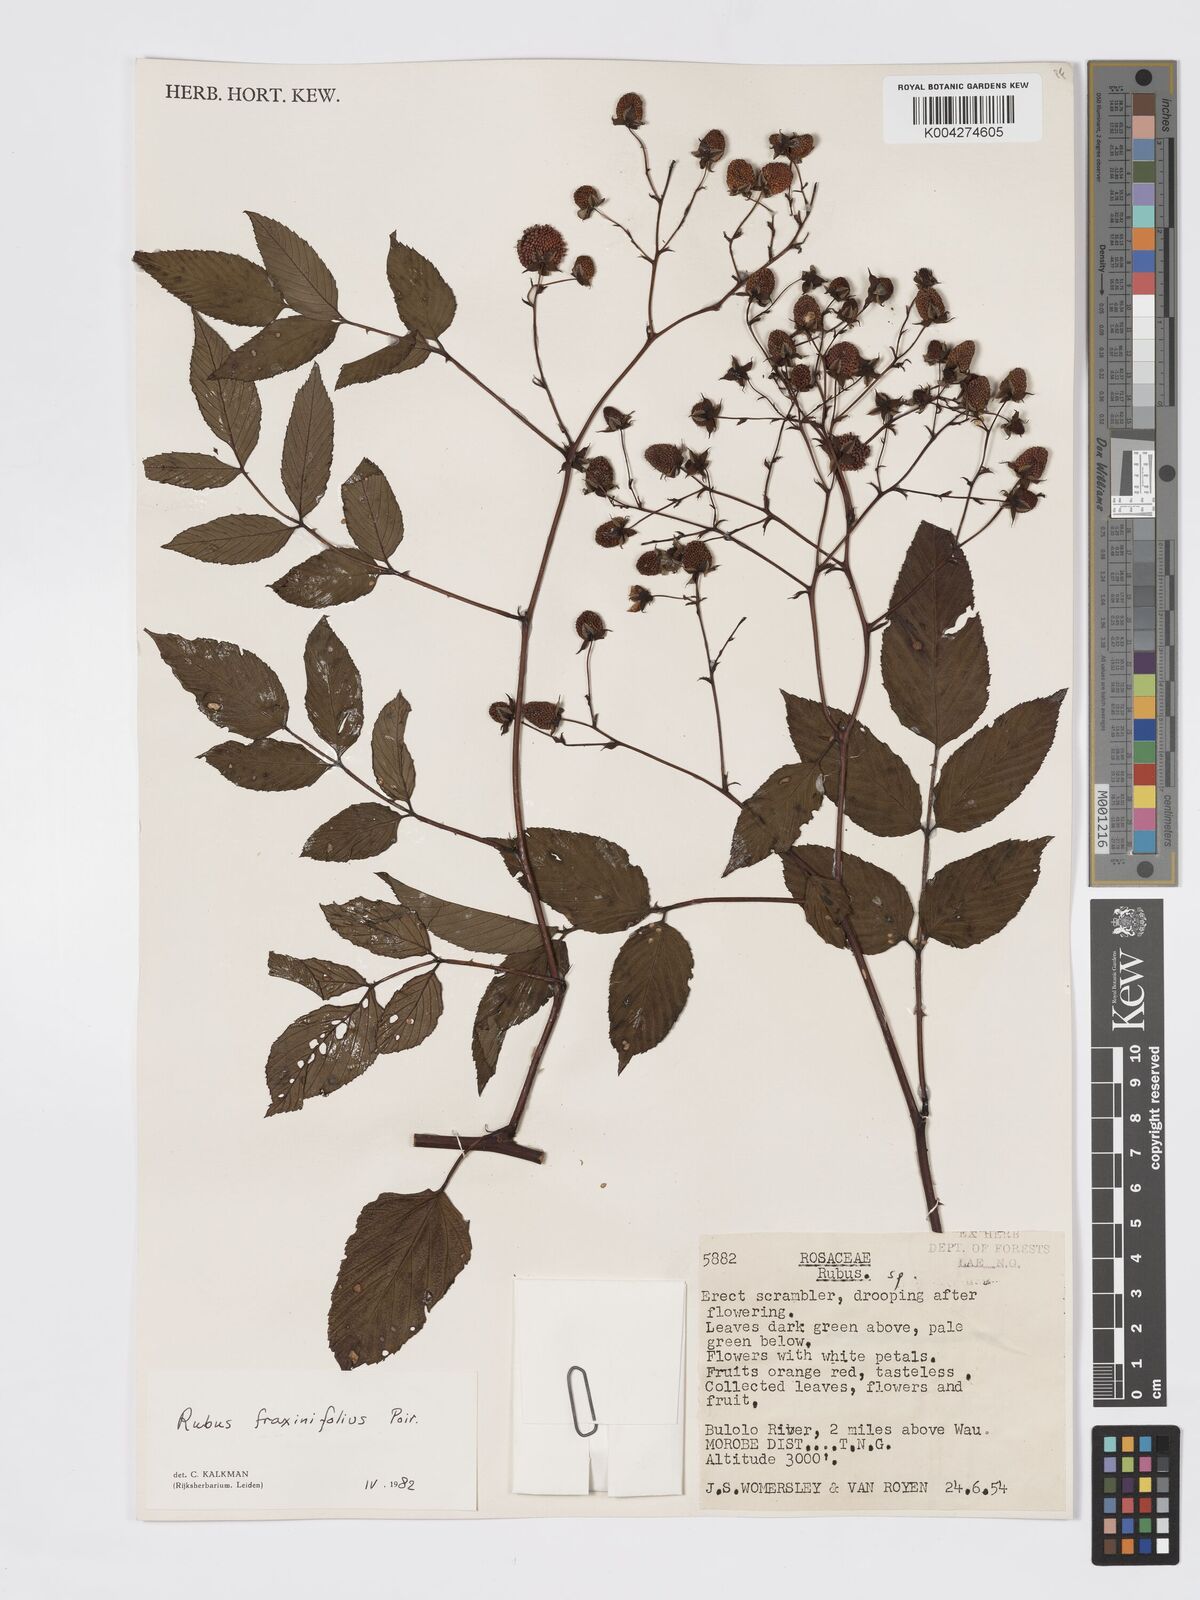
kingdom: Plantae
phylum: Tracheophyta
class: Magnoliopsida
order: Rosales
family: Rosaceae
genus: Rubus
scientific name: Rubus fraxinifolius
